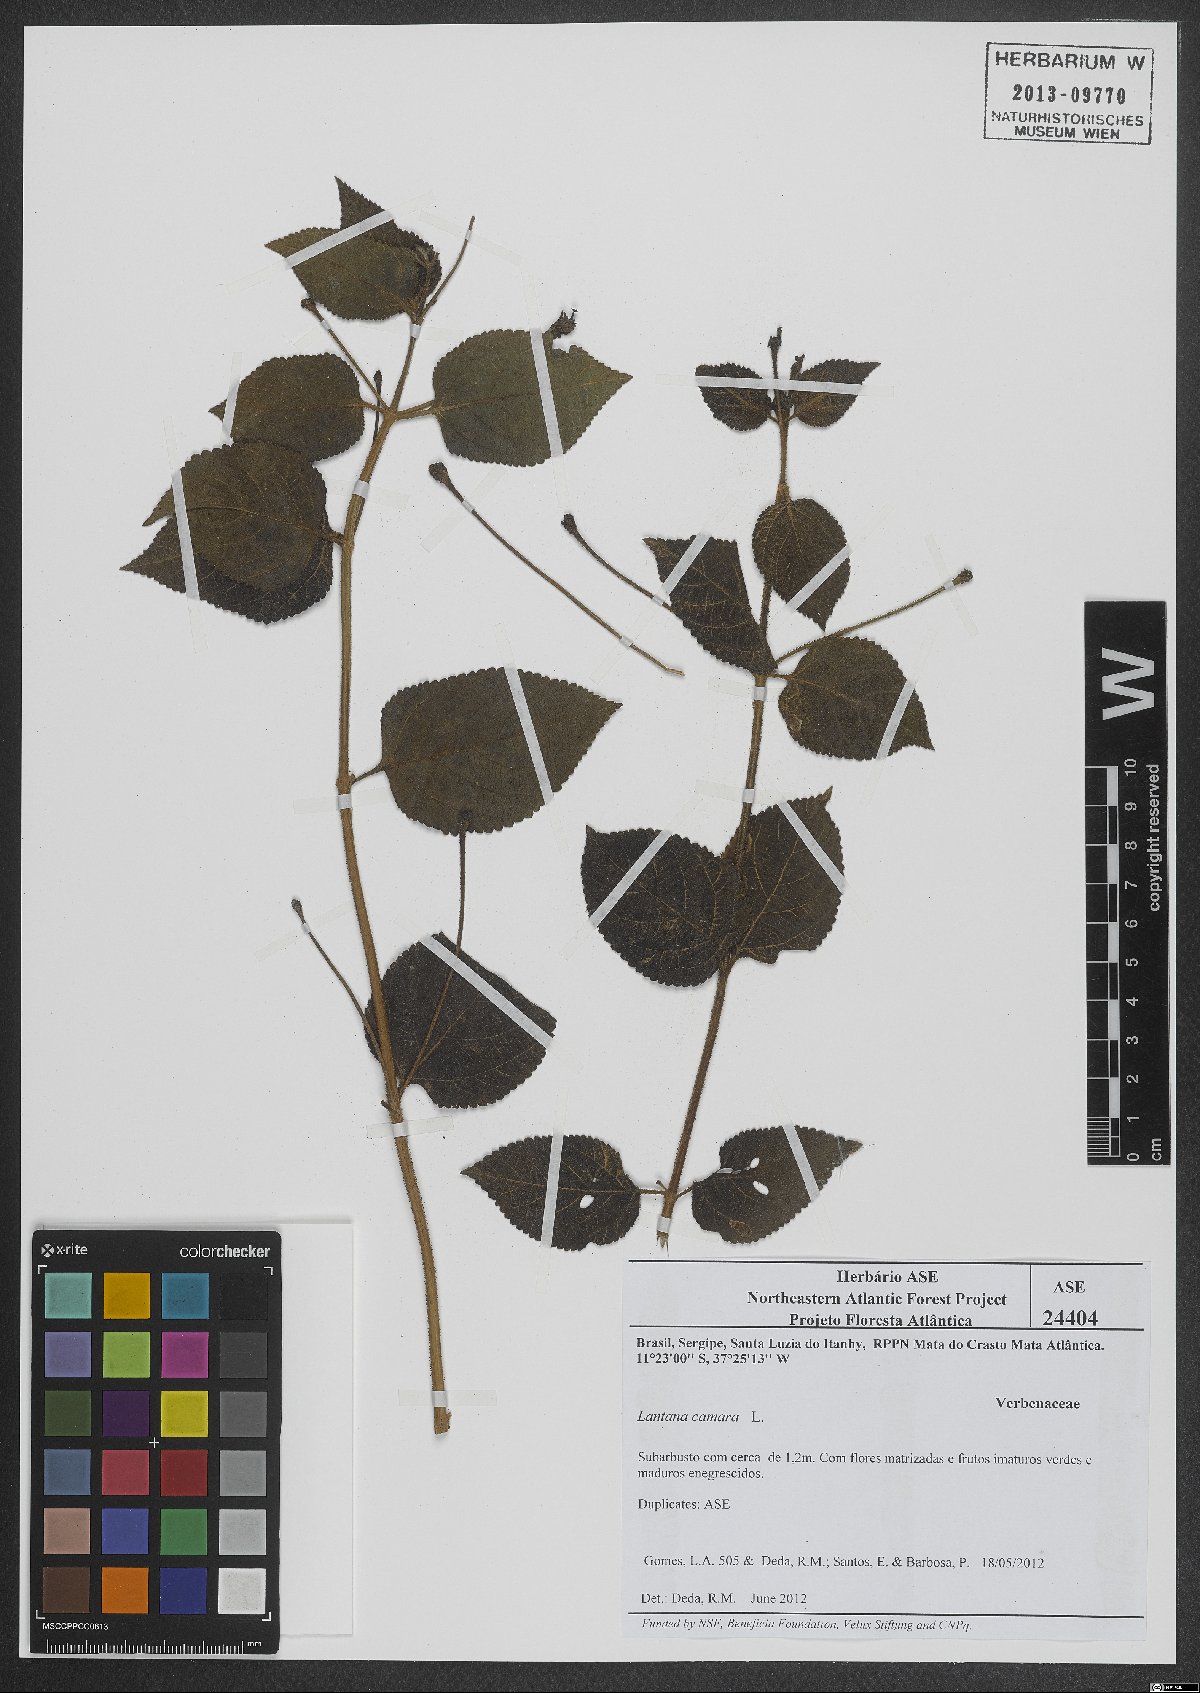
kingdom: Plantae
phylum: Tracheophyta
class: Magnoliopsida
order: Lamiales
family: Verbenaceae
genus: Lantana
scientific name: Lantana camara
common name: Lantana
